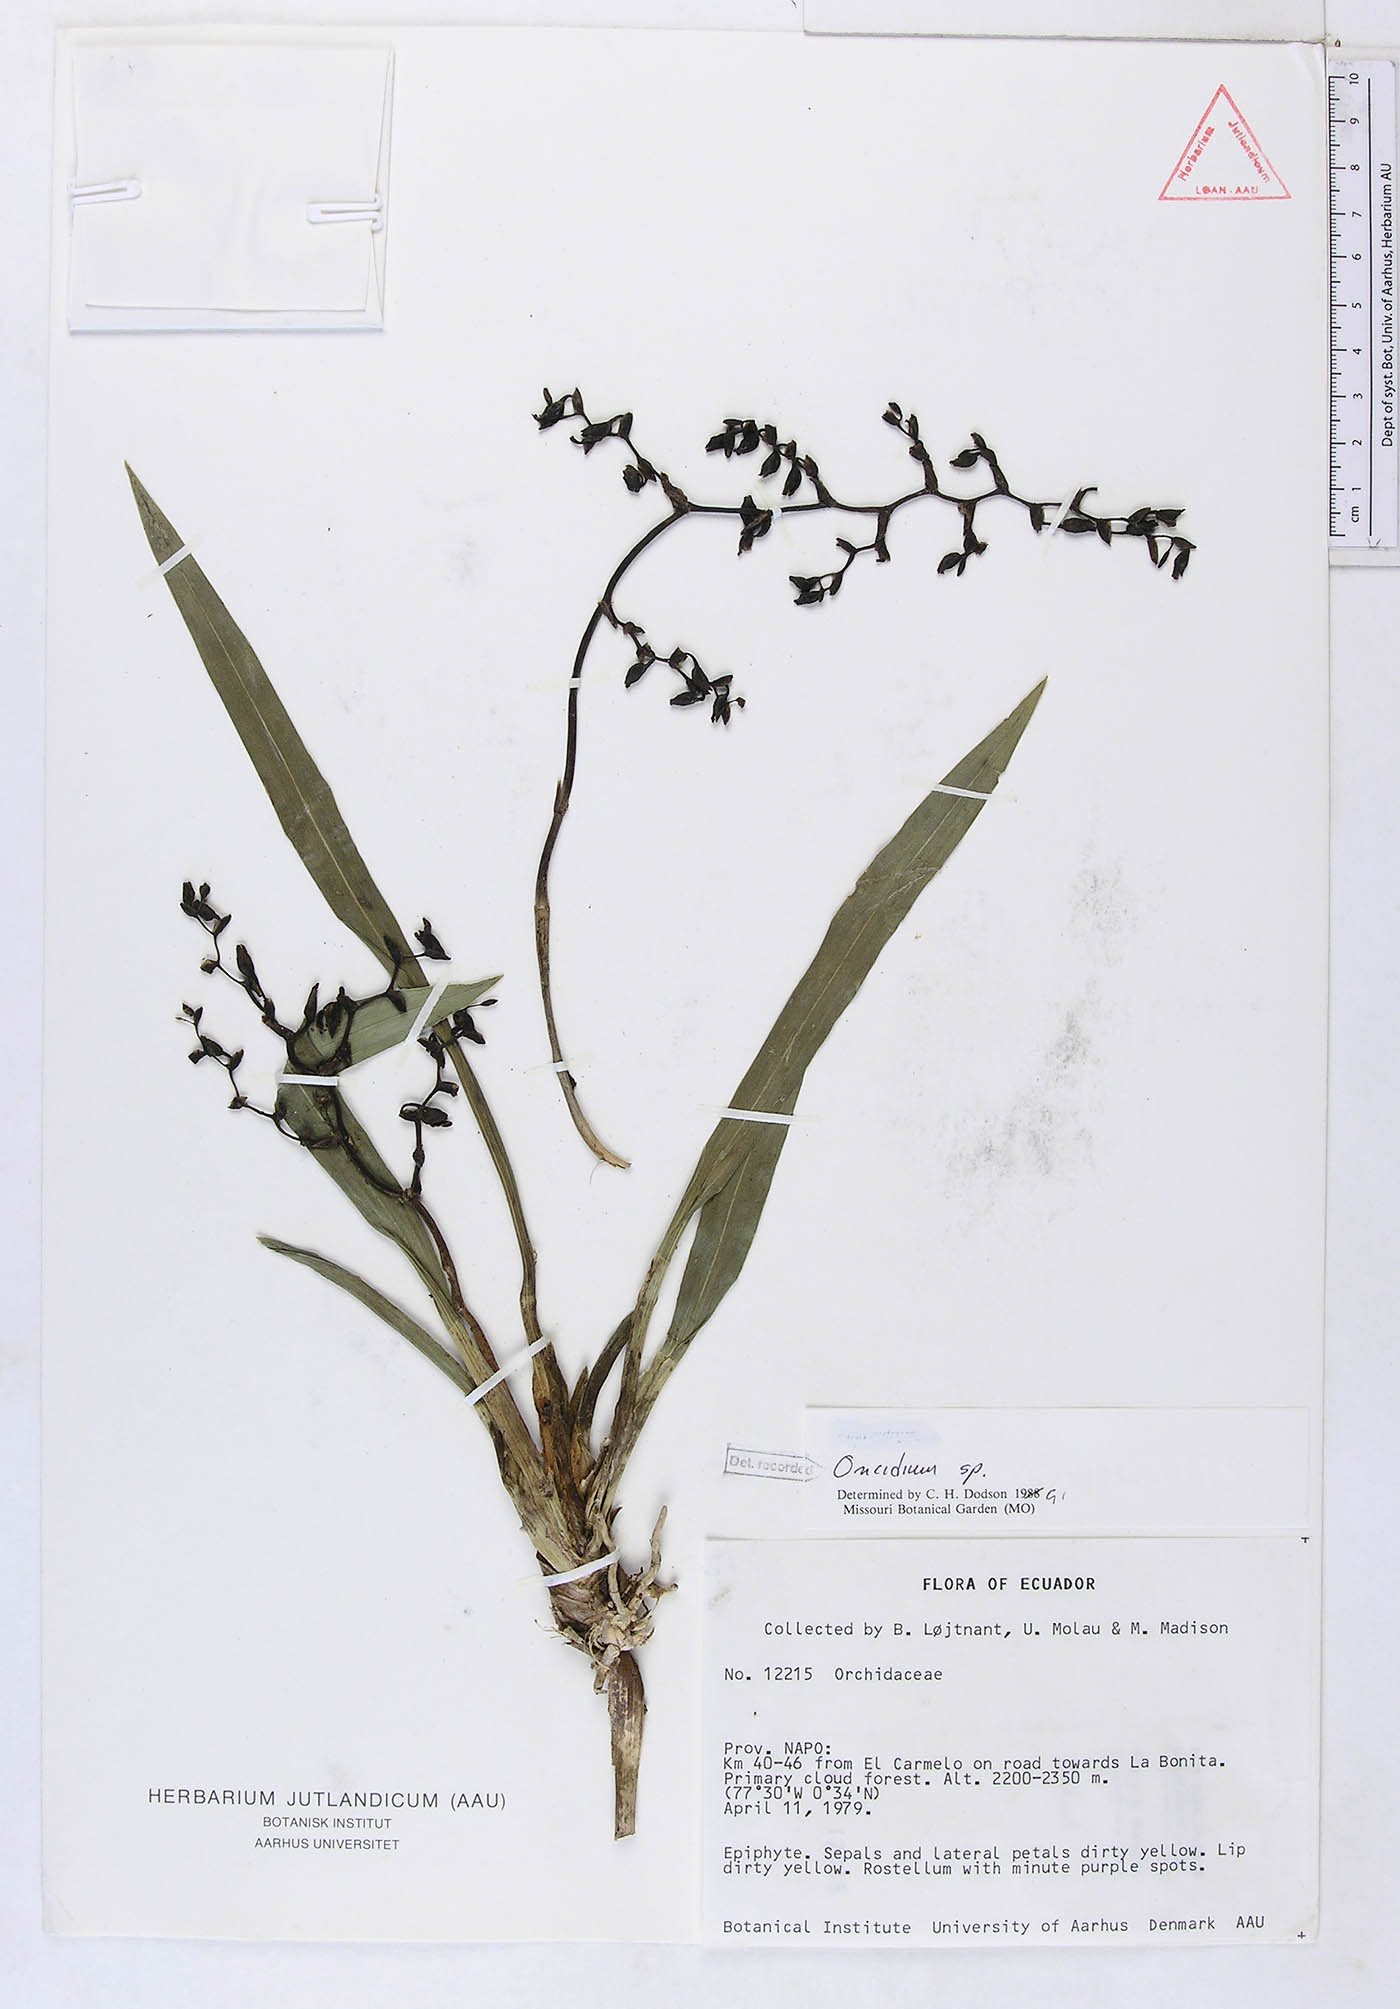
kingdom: Plantae
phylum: Tracheophyta
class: Liliopsida
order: Asparagales
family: Orchidaceae
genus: Oncidium
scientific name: Oncidium
